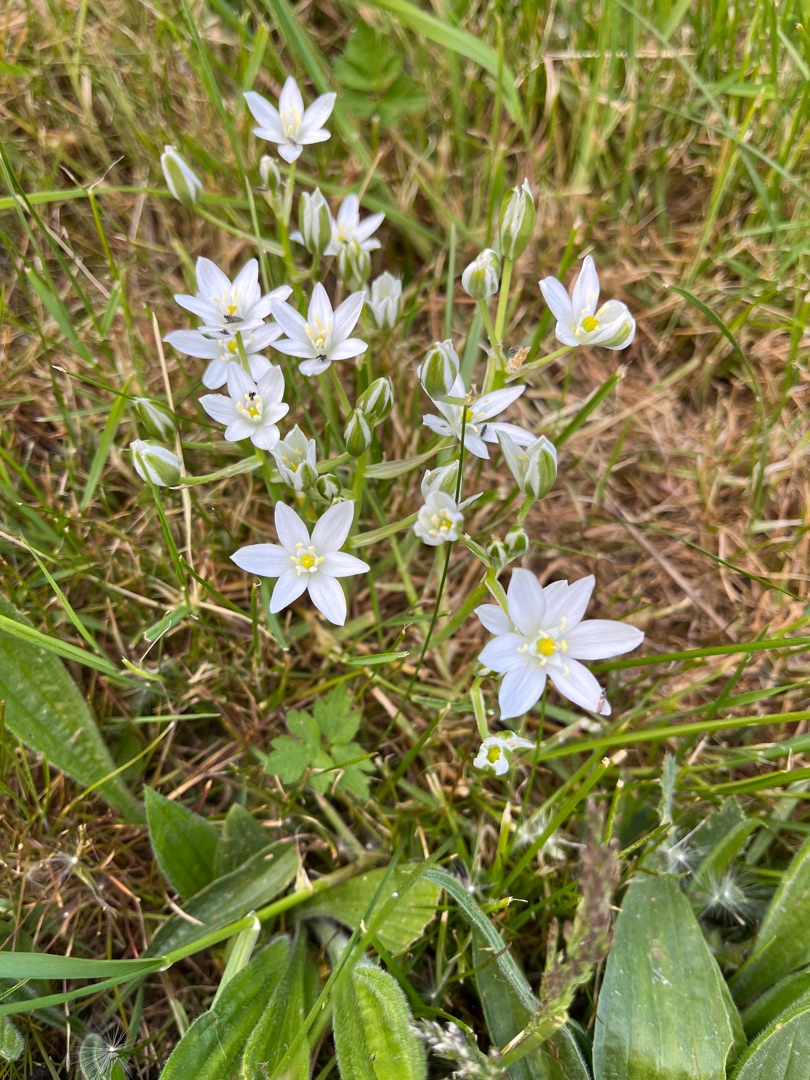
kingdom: Plantae
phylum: Tracheophyta
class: Liliopsida
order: Asparagales
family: Asparagaceae
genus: Ornithogalum
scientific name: Ornithogalum umbellatum
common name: Kost-fuglemælk
